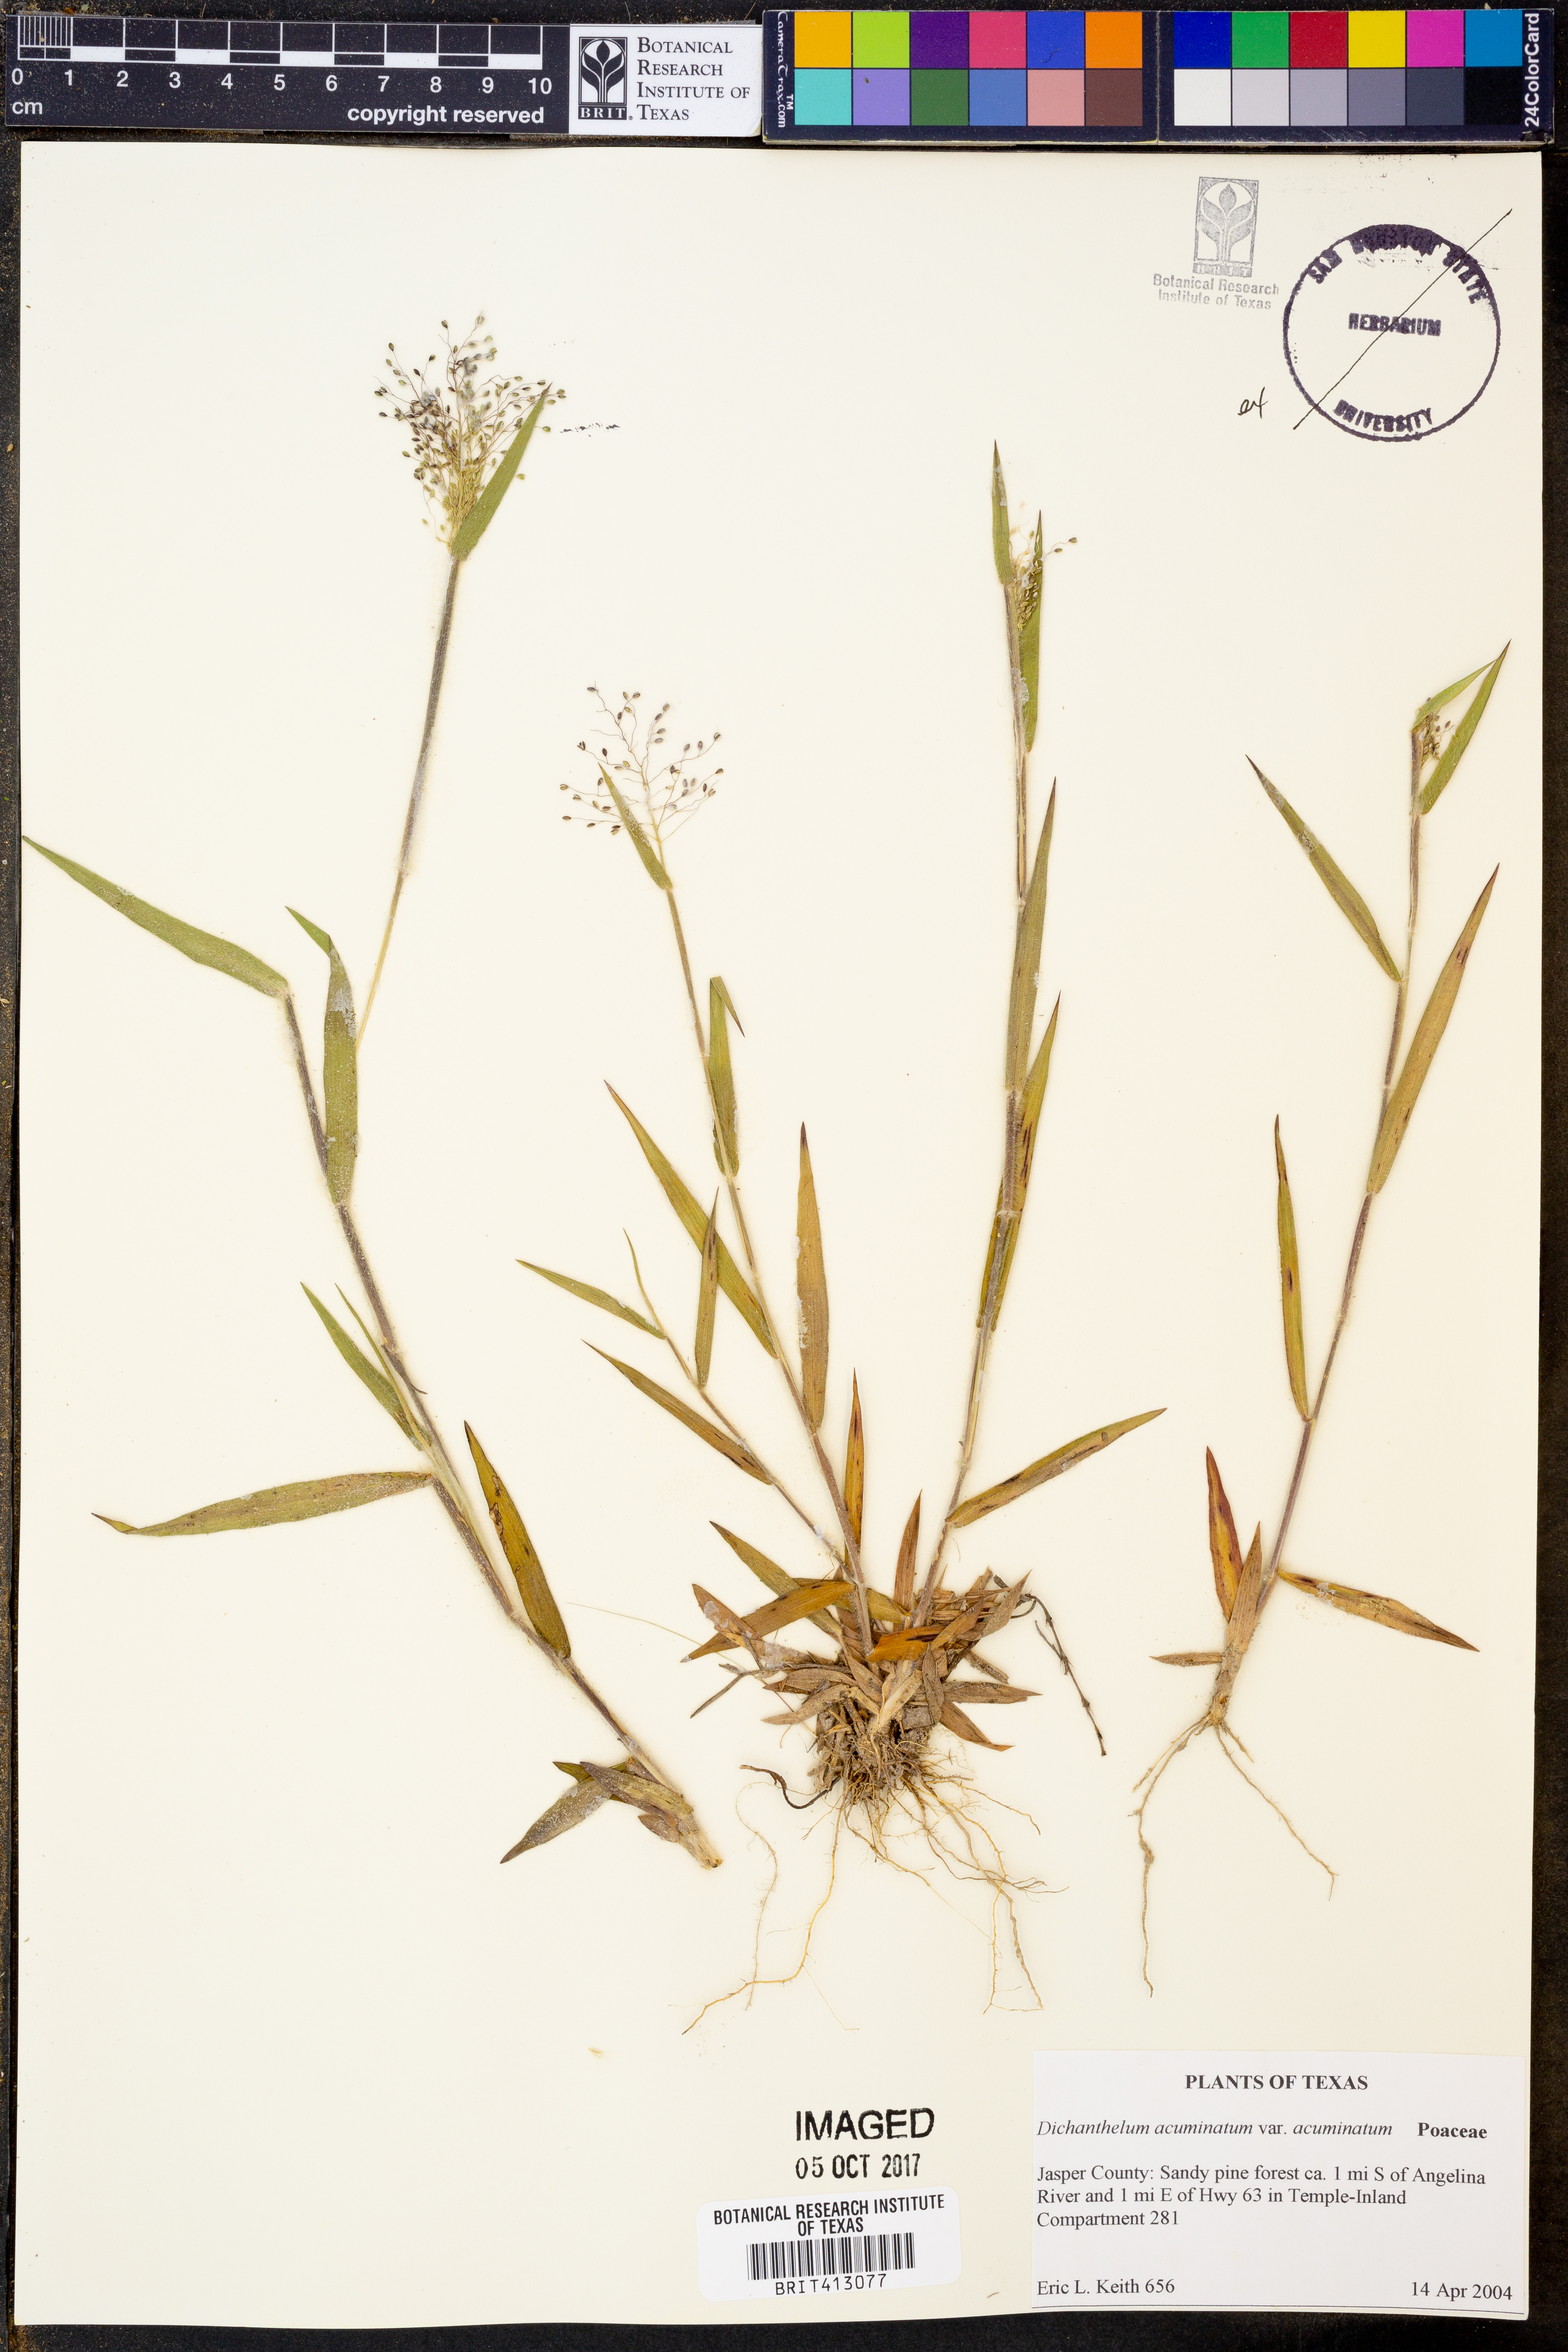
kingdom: Plantae
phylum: Tracheophyta
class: Liliopsida
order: Poales
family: Poaceae
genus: Dichanthelium
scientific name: Dichanthelium acuminatum
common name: Hairy panic grass
